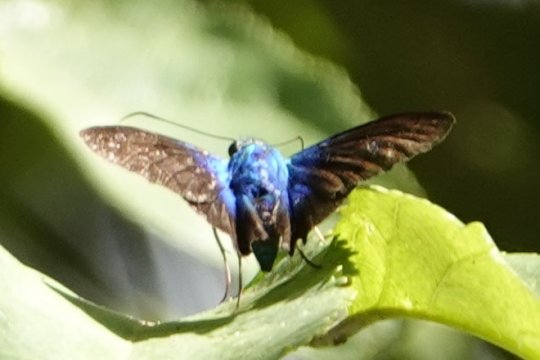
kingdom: Animalia
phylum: Arthropoda
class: Insecta
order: Lepidoptera
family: Hesperiidae
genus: Astraptes
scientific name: Astraptes megalurus
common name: Long-tailed Flasher
